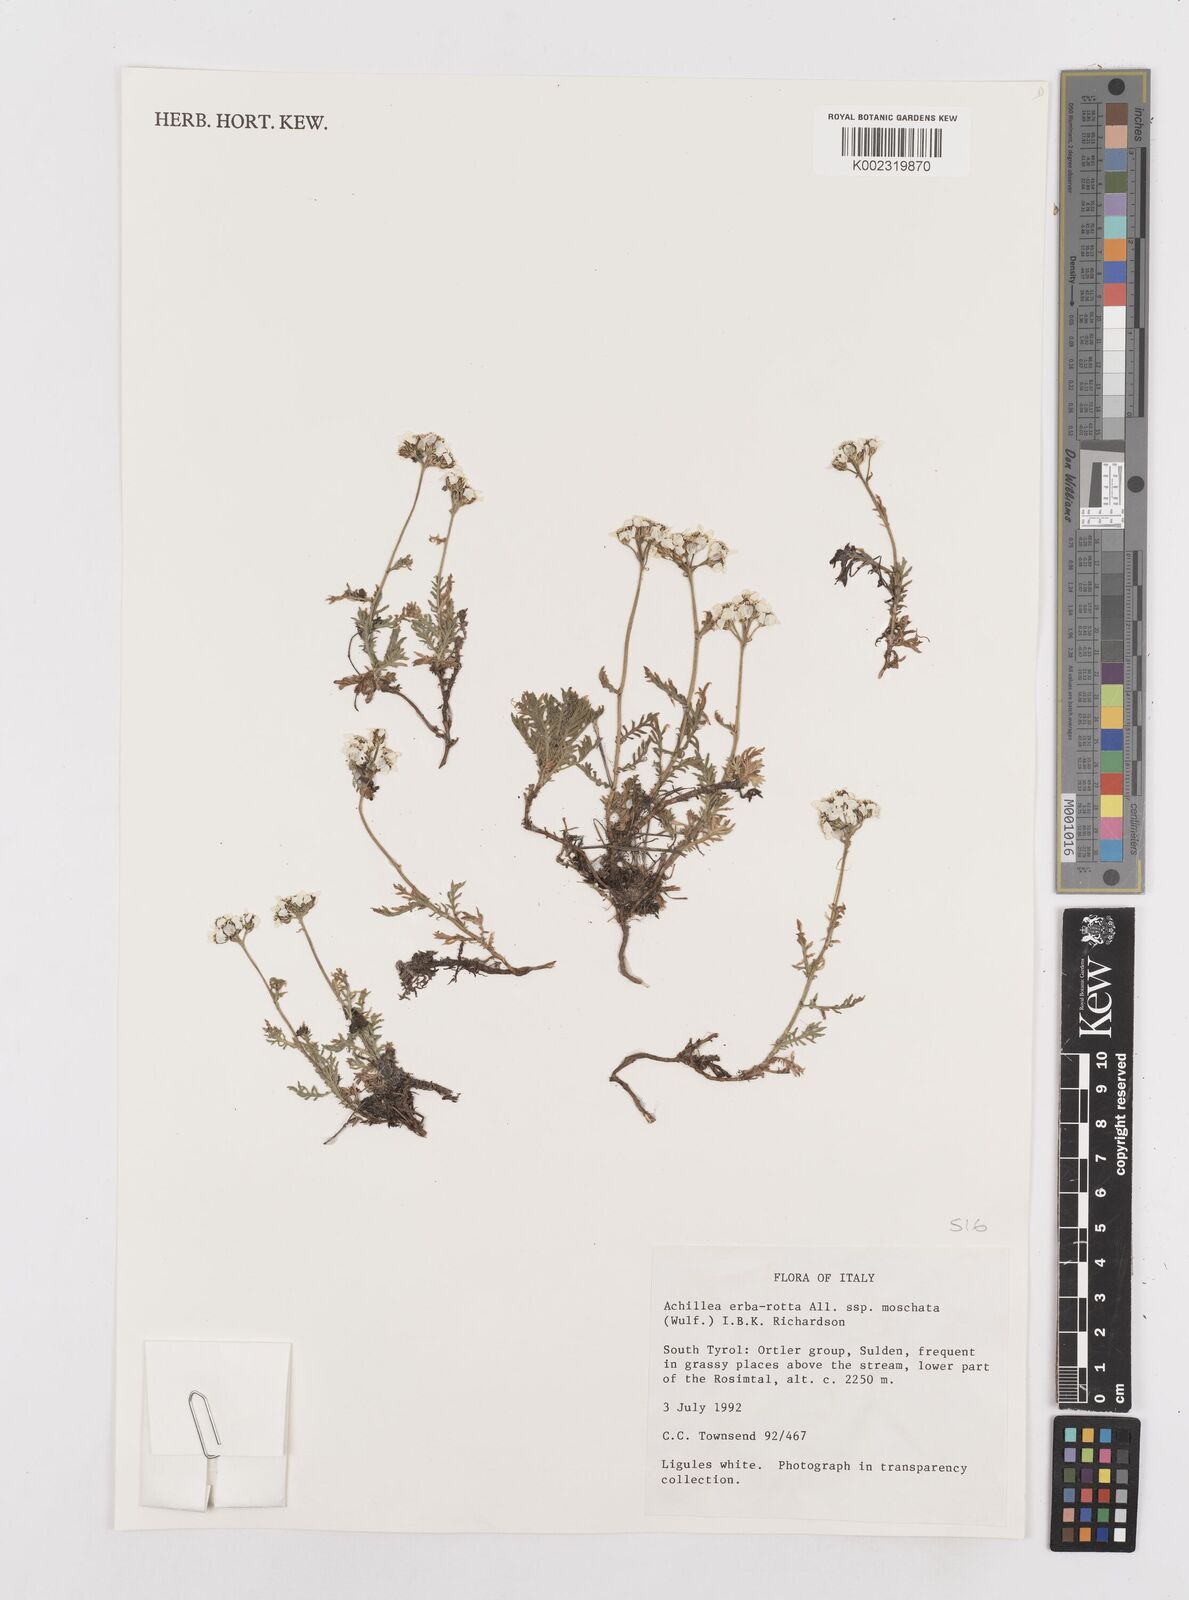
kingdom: Plantae
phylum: Tracheophyta
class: Magnoliopsida
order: Asterales
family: Asteraceae
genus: Achillea
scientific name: Achillea erba-rotta
